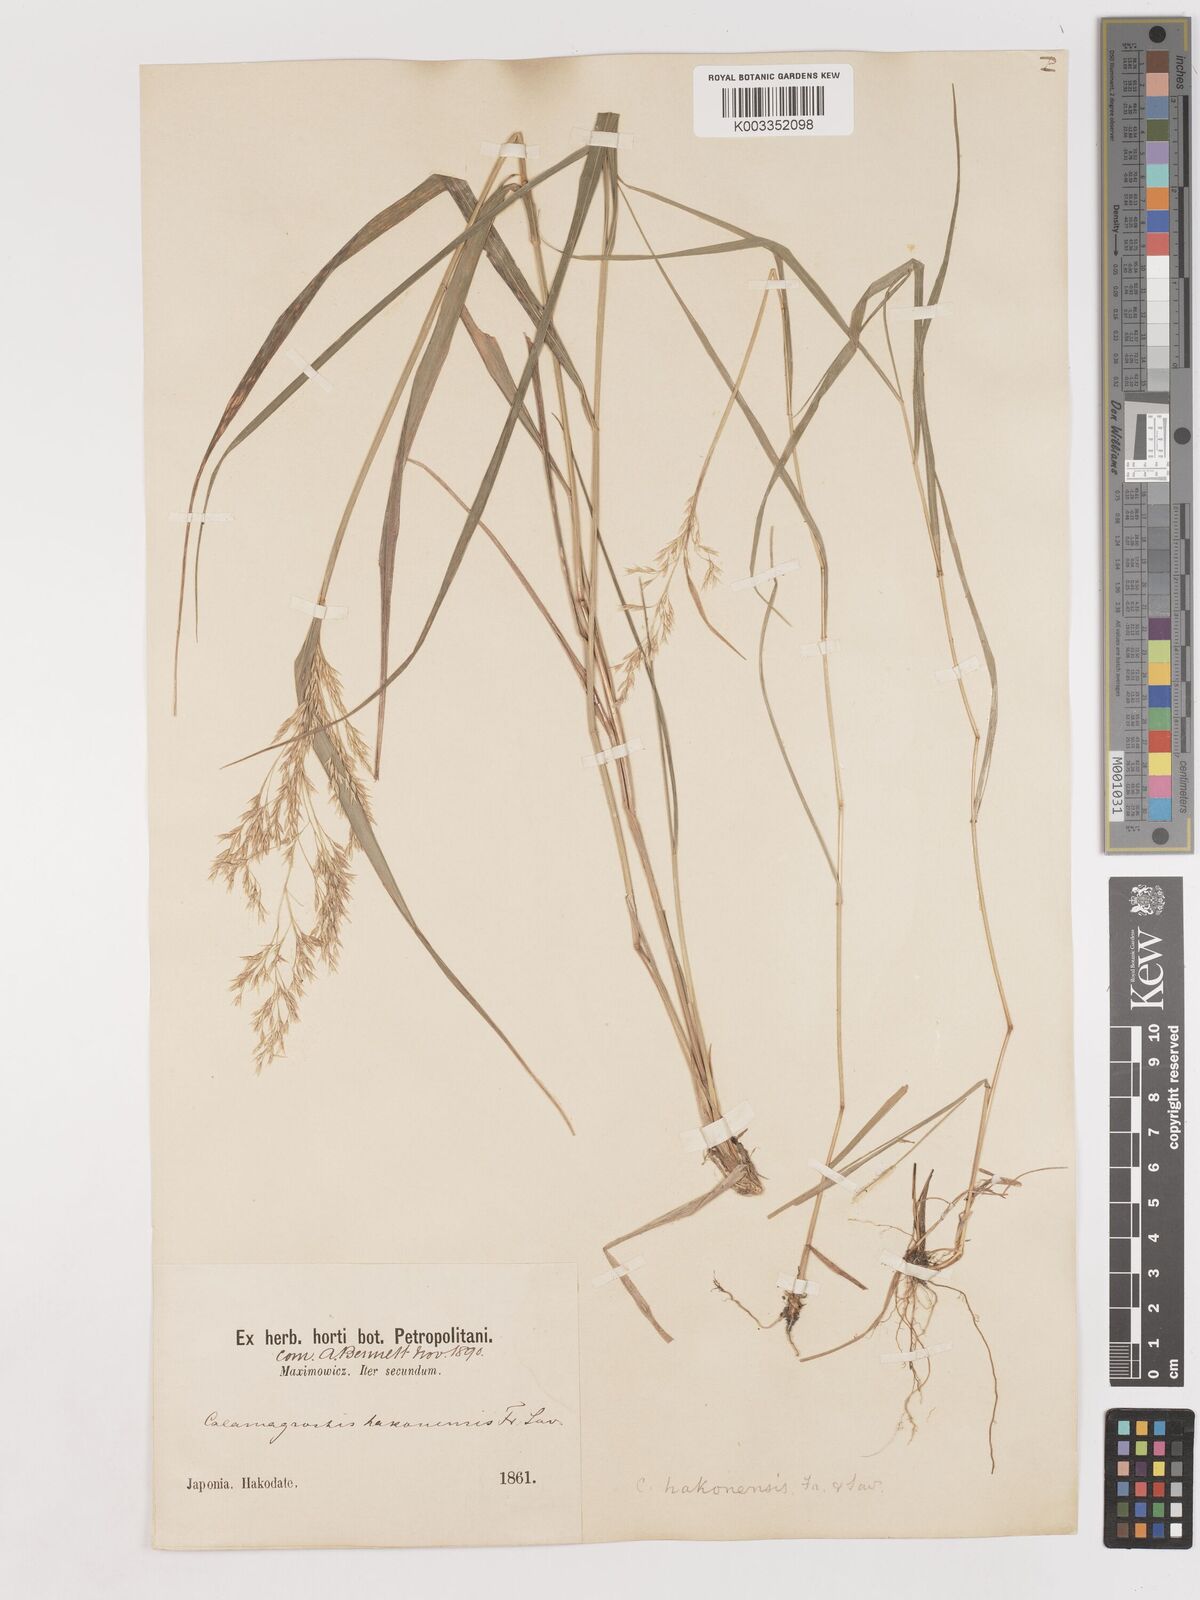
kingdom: Plantae
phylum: Tracheophyta
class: Liliopsida
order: Poales
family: Poaceae
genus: Calamagrostis
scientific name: Calamagrostis hakonensis
